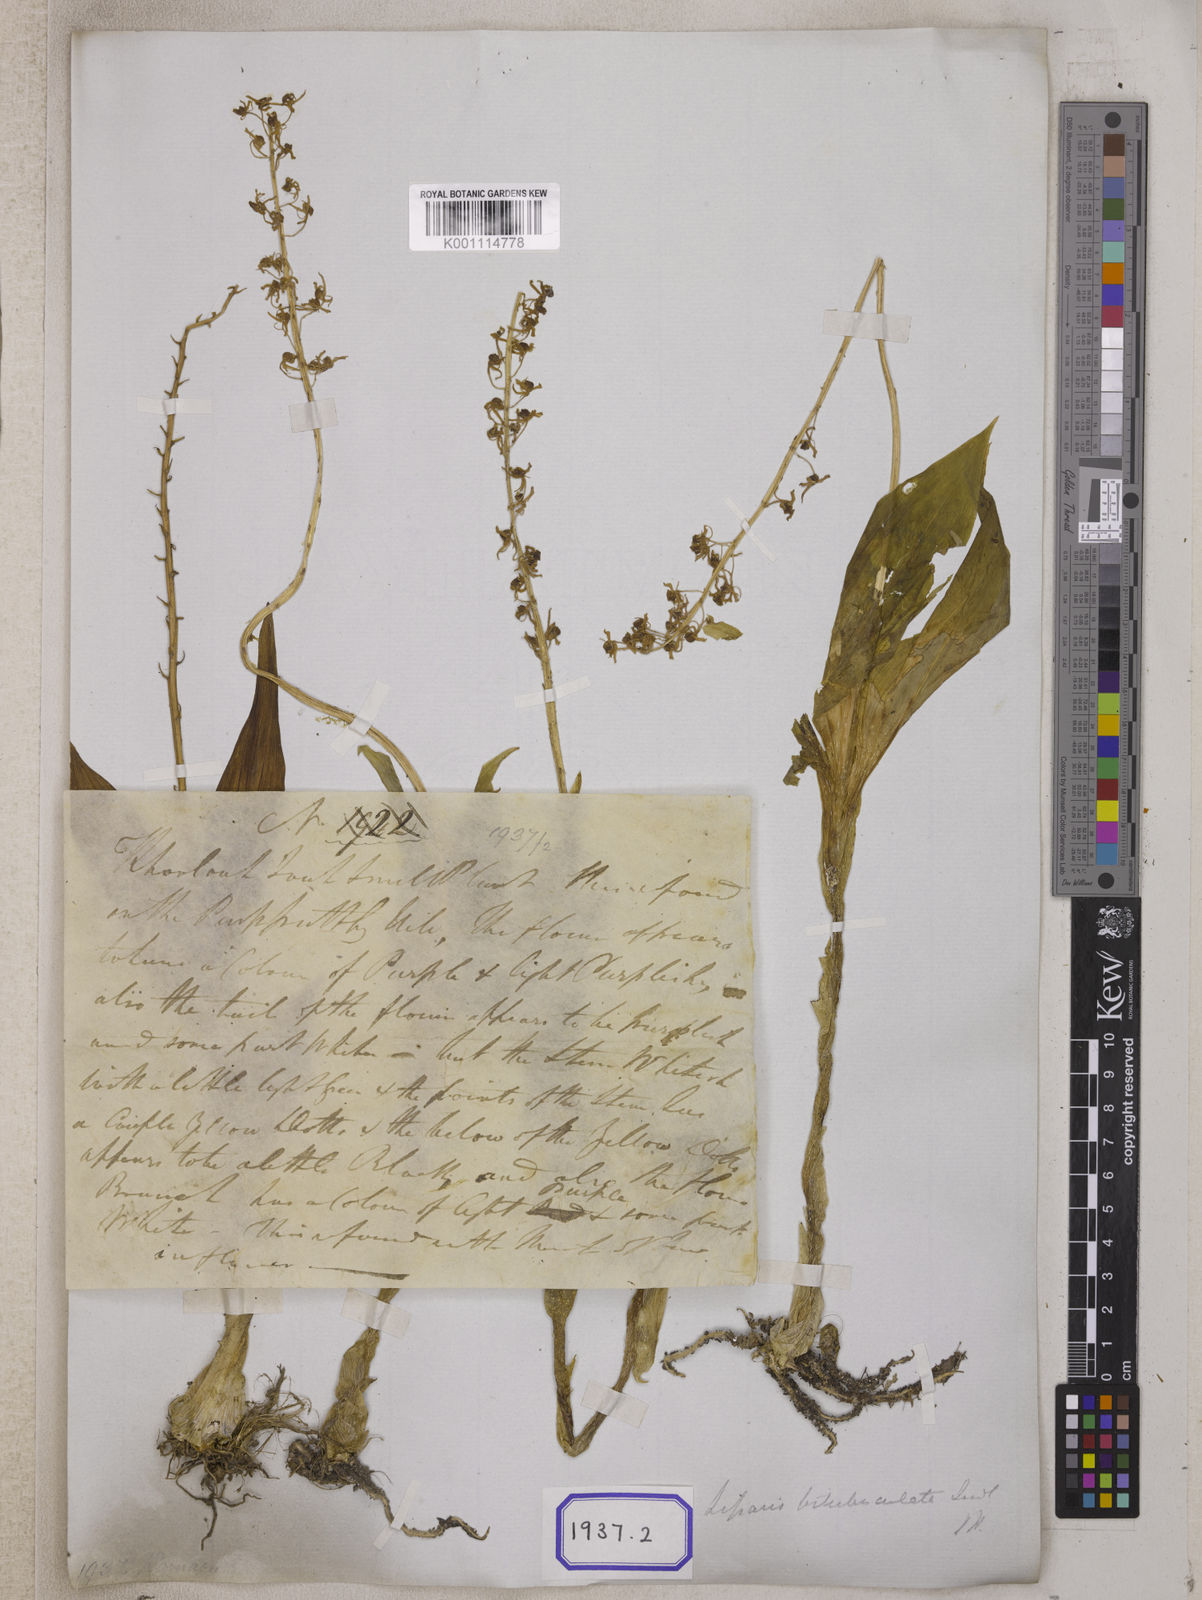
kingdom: Plantae
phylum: Tracheophyta
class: Liliopsida
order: Asparagales
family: Orchidaceae
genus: Liparis
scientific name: Liparis odorata
